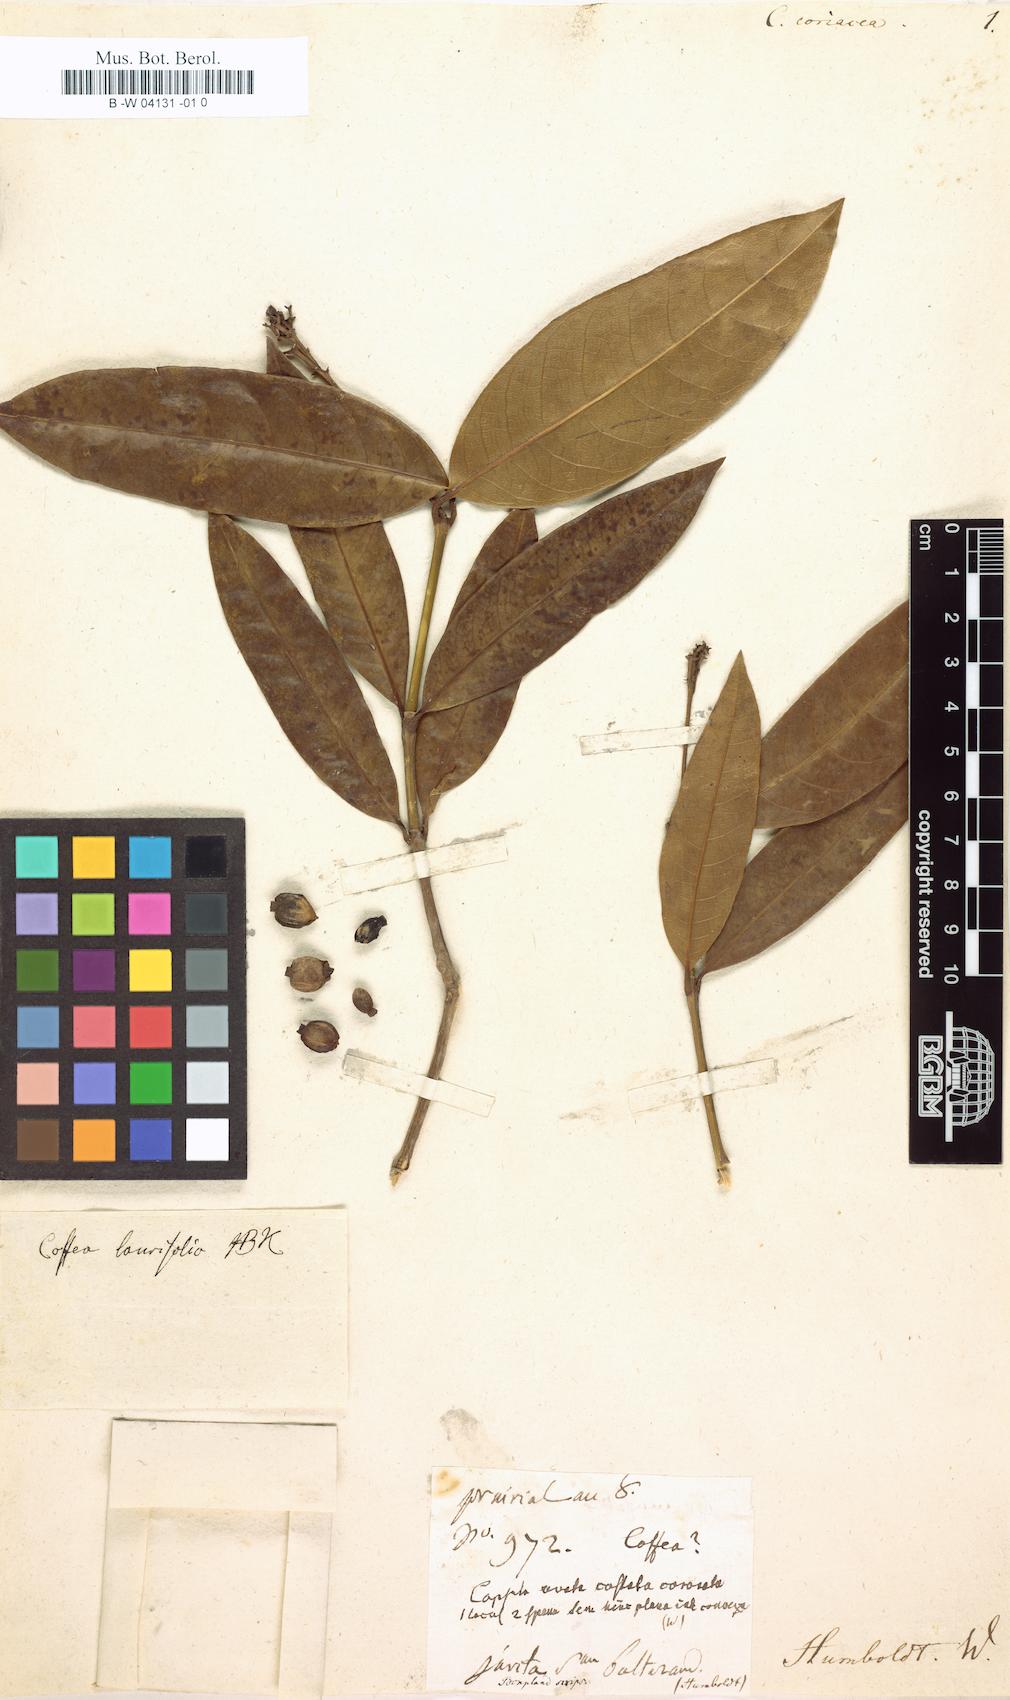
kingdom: Plantae
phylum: Tracheophyta
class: Magnoliopsida
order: Gentianales
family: Rubiaceae
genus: Rudgea
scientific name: Rudgea sclerocalyx
